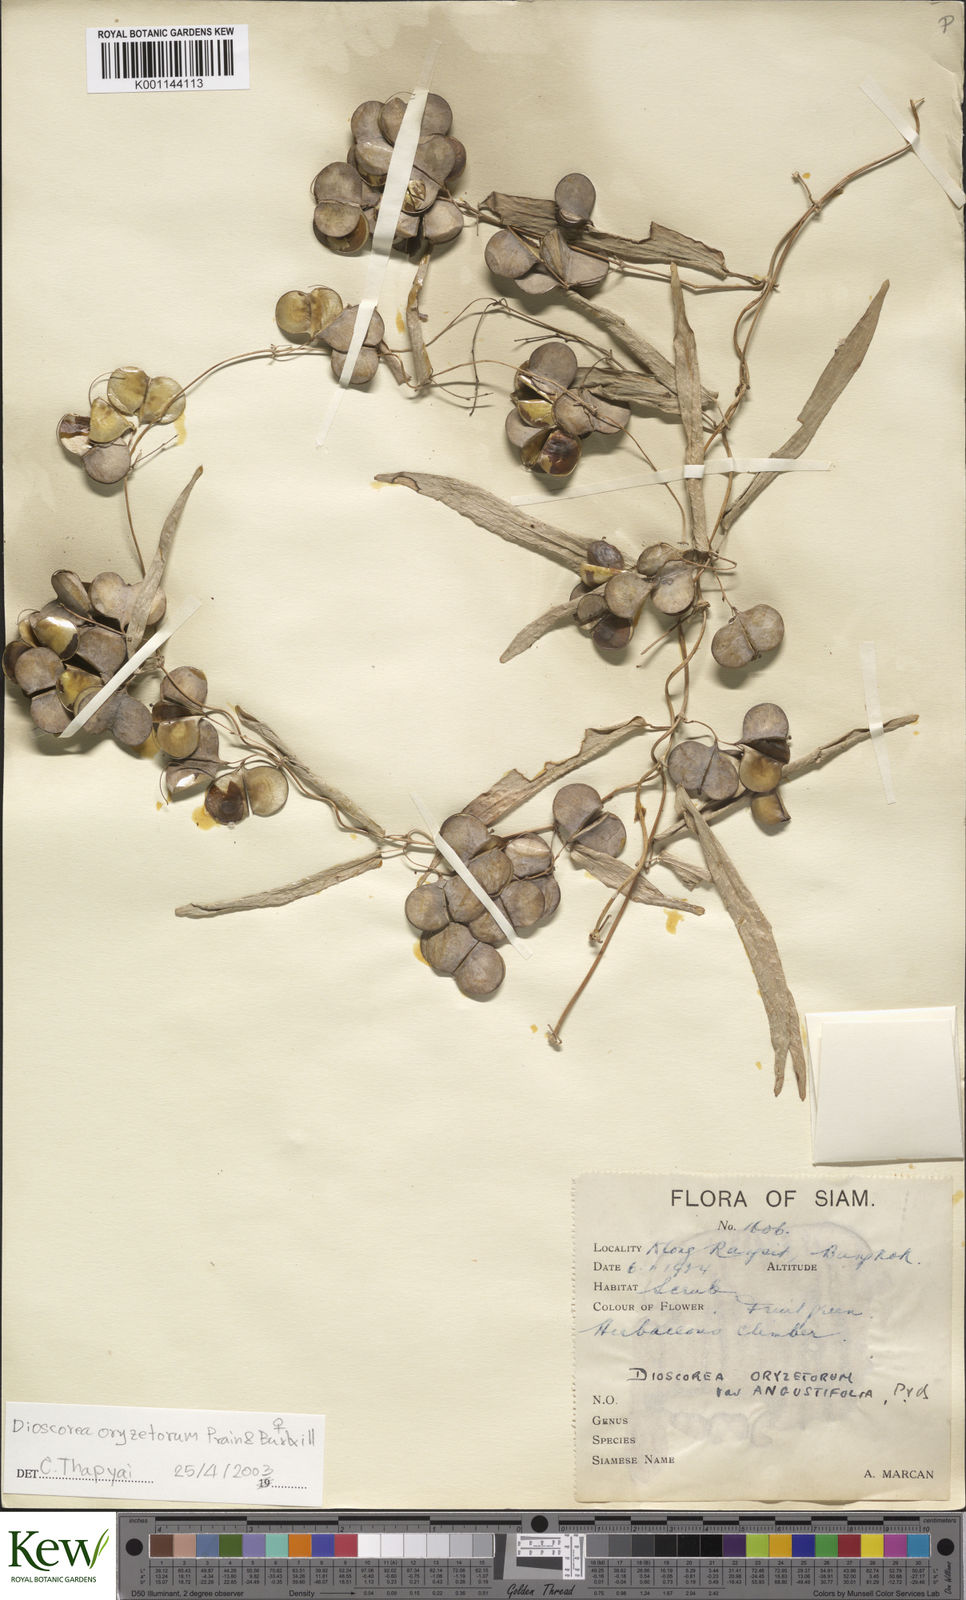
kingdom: Plantae
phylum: Tracheophyta
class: Liliopsida
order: Dioscoreales
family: Dioscoreaceae
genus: Dioscorea
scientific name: Dioscorea
